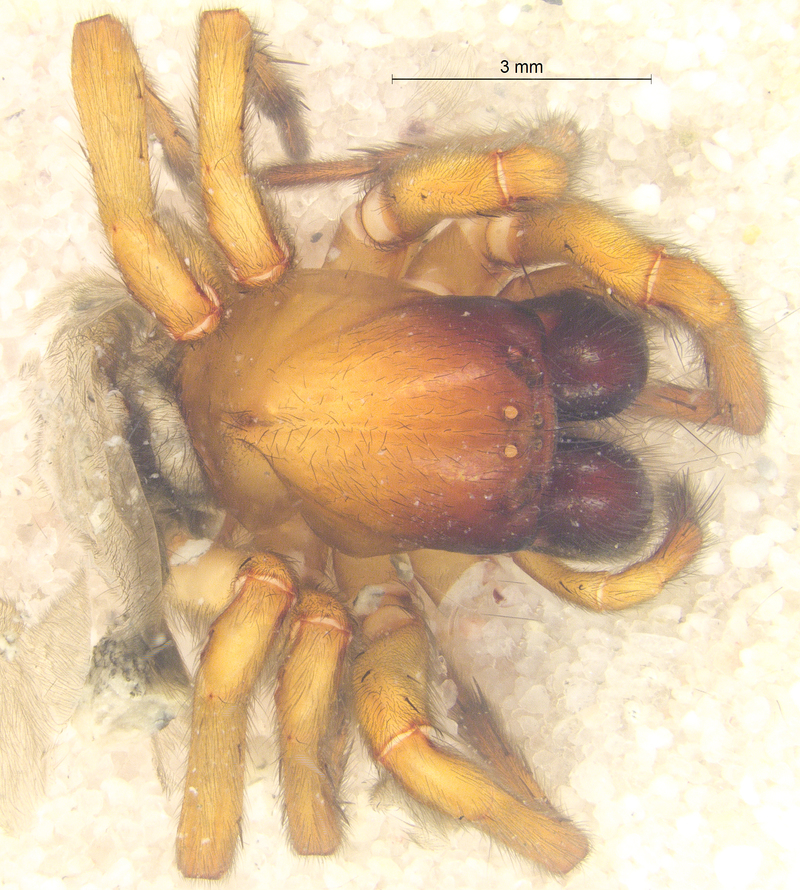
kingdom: Animalia
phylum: Arthropoda
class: Arachnida
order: Araneae
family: Amaurobiidae
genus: Callobius
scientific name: Callobius claustrarius
